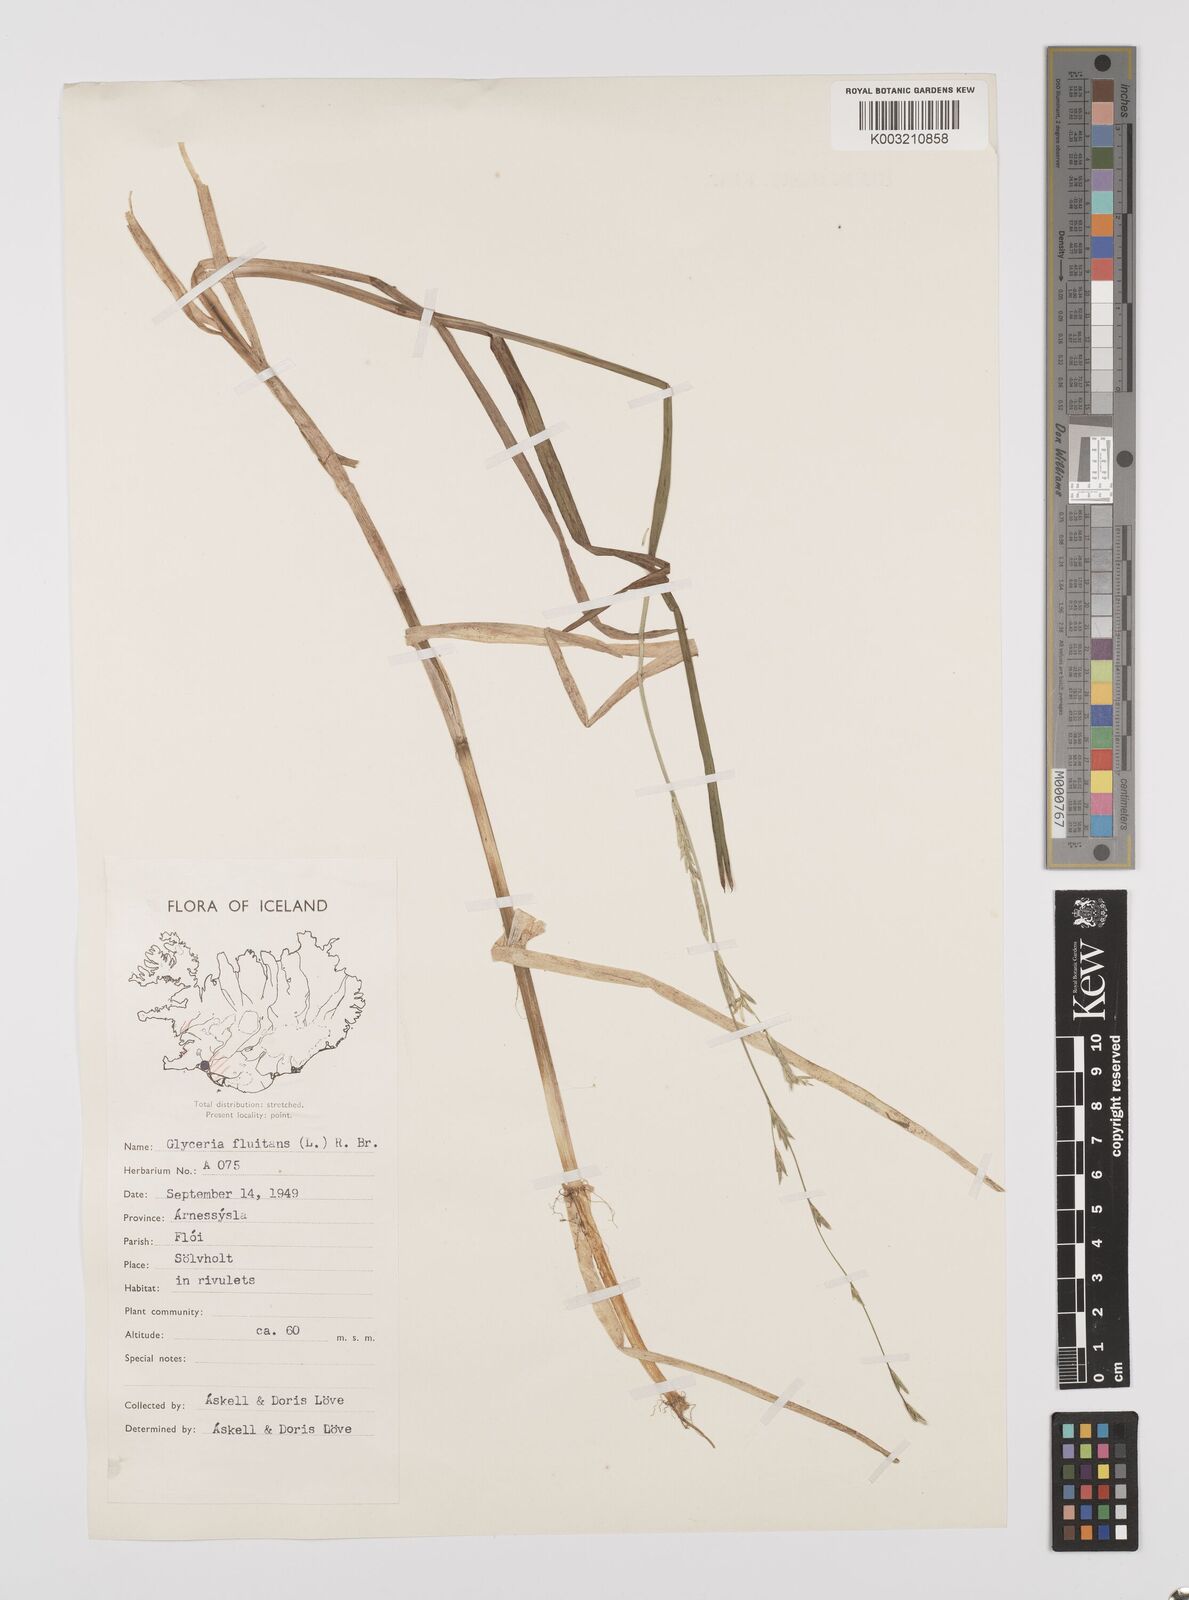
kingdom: Plantae
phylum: Tracheophyta
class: Liliopsida
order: Poales
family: Poaceae
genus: Glyceria
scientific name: Glyceria fluitans
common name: Floating sweet-grass
